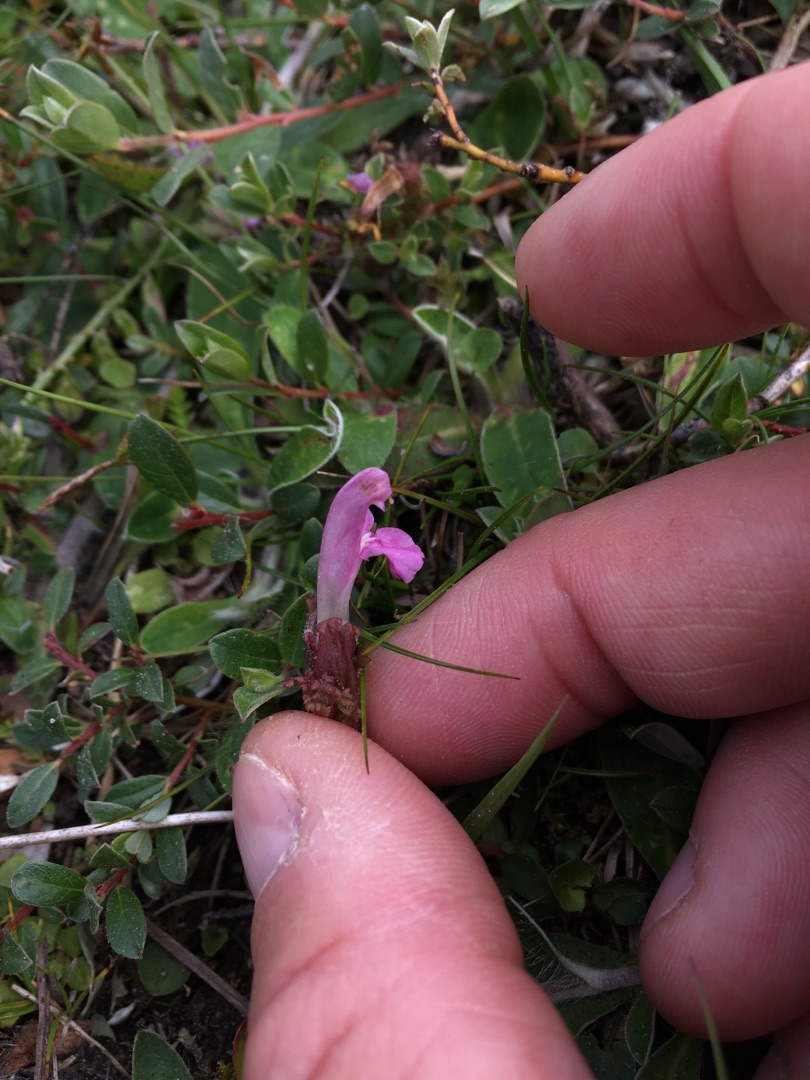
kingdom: Plantae
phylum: Tracheophyta
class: Magnoliopsida
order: Lamiales
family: Orobanchaceae
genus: Pedicularis
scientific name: Pedicularis sylvatica
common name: Mose-troldurt
